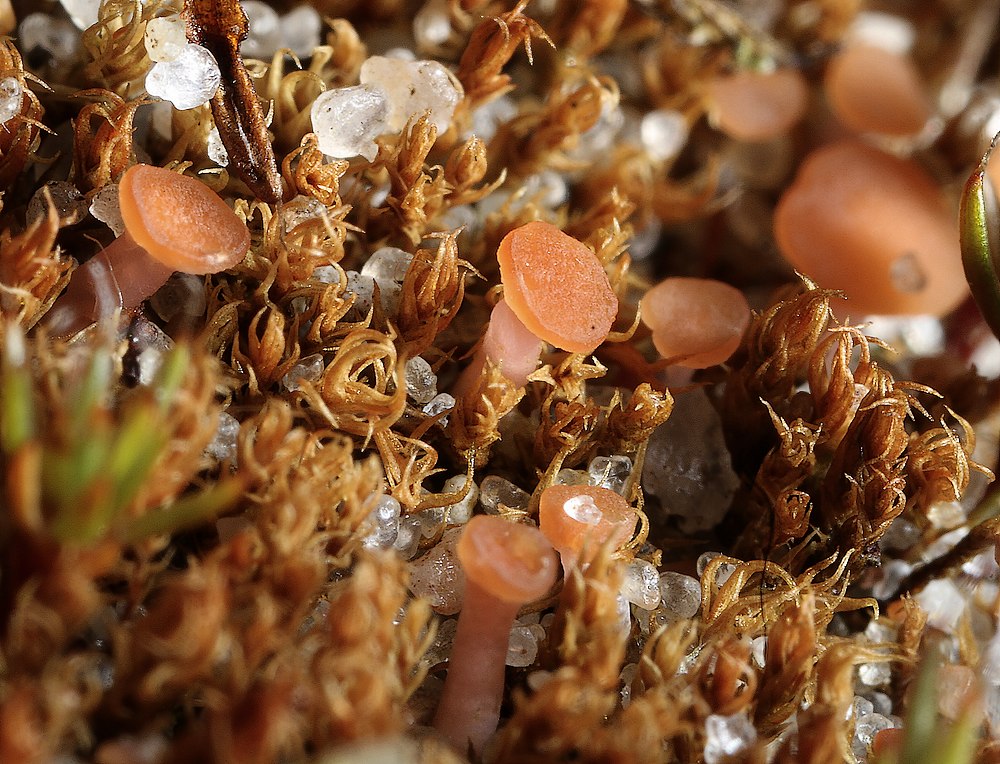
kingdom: Fungi
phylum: Ascomycota
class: Leotiomycetes
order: Helotiales
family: Hyaloscyphaceae
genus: Roseodiscus
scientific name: Roseodiscus formosus
